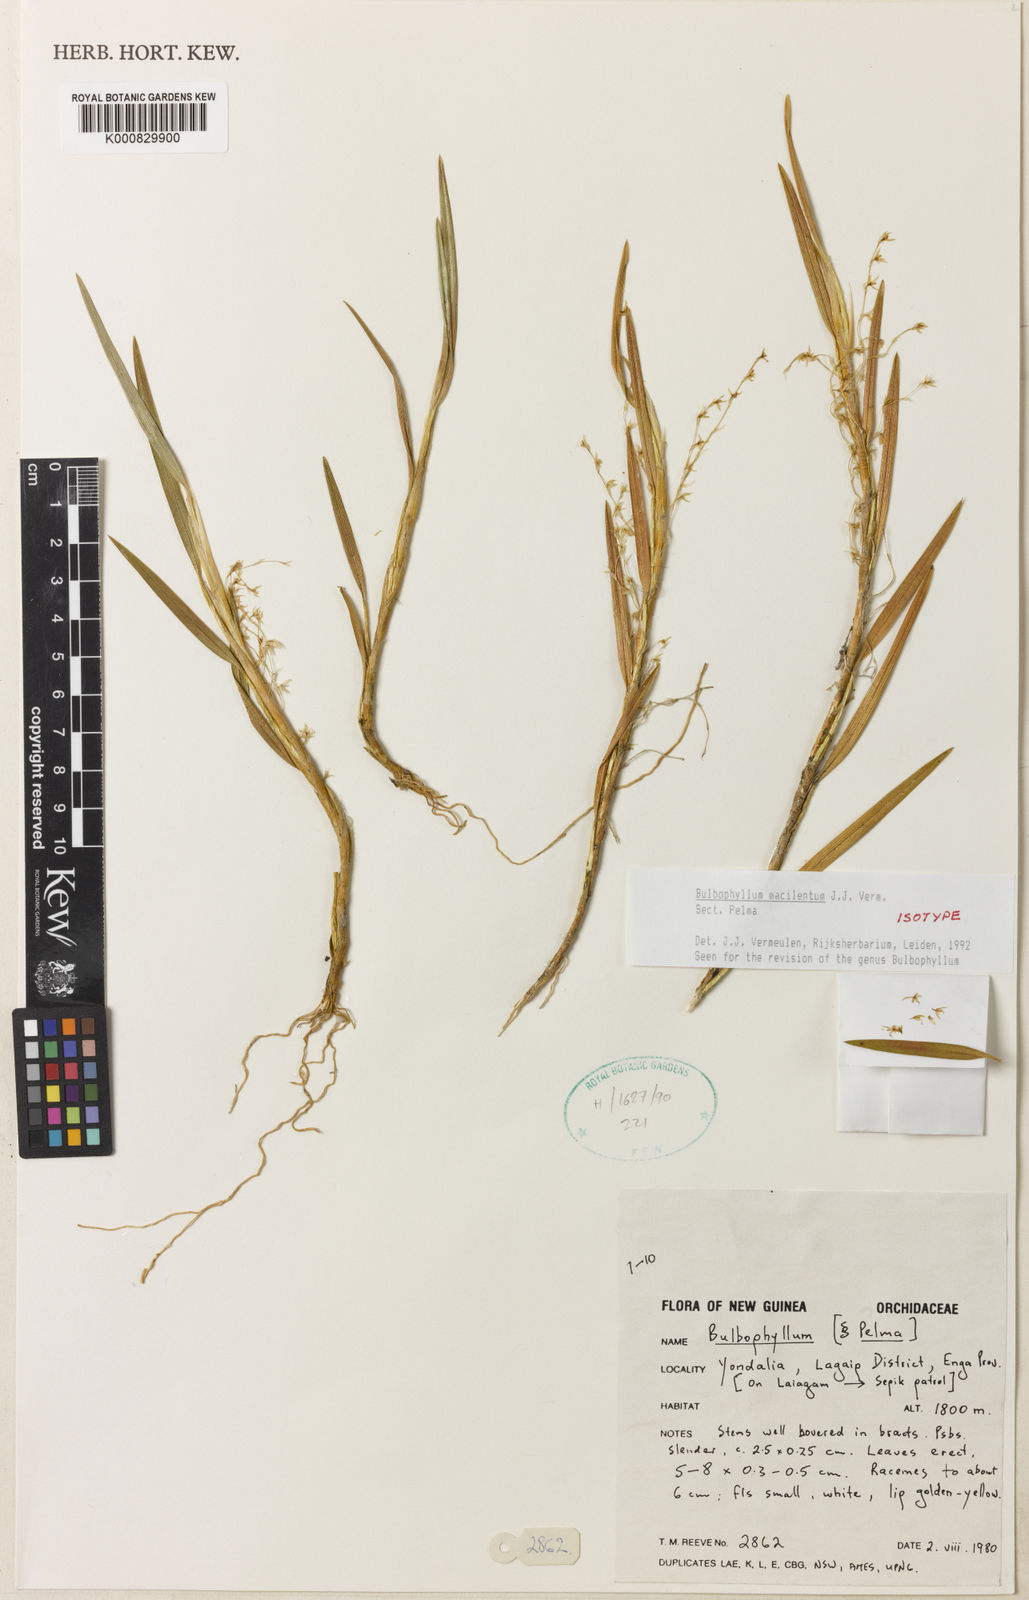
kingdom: Plantae
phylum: Tracheophyta
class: Liliopsida
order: Asparagales
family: Orchidaceae
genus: Bulbophyllum
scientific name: Bulbophyllum
